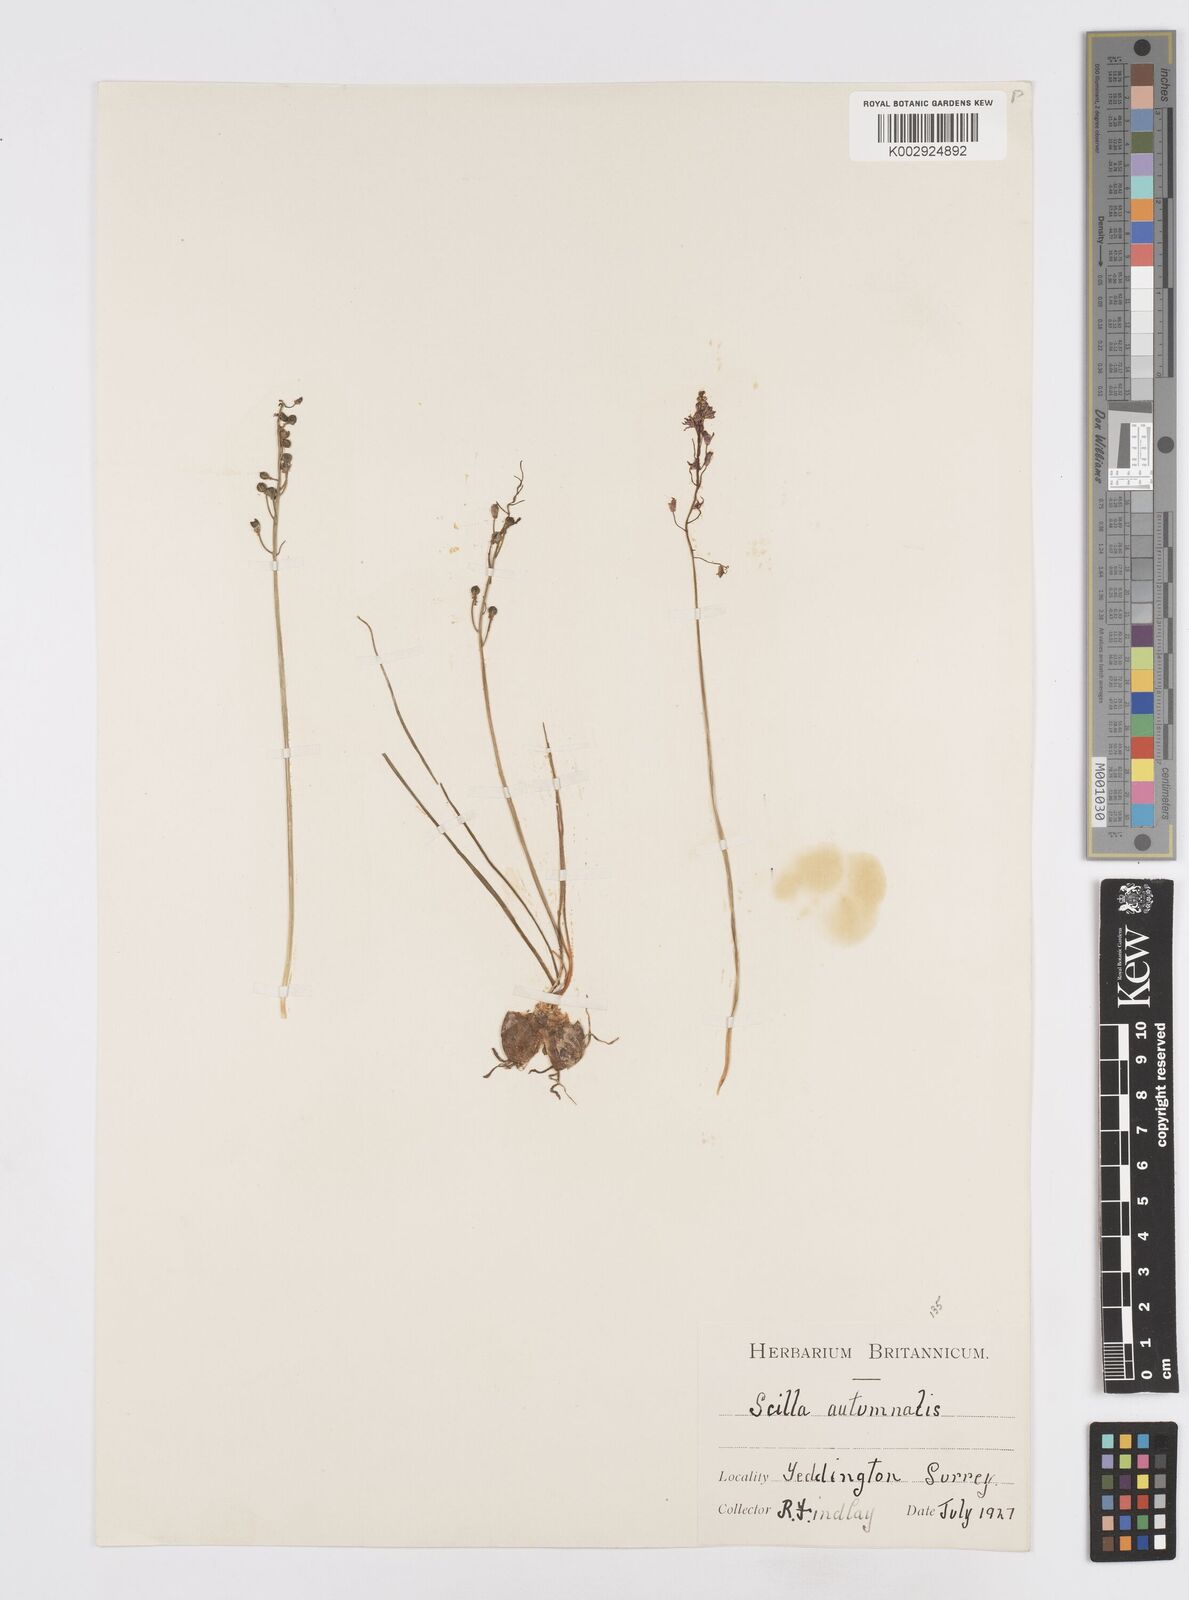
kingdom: Plantae
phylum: Tracheophyta
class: Liliopsida
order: Asparagales
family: Asparagaceae
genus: Prospero
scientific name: Prospero autumnale
